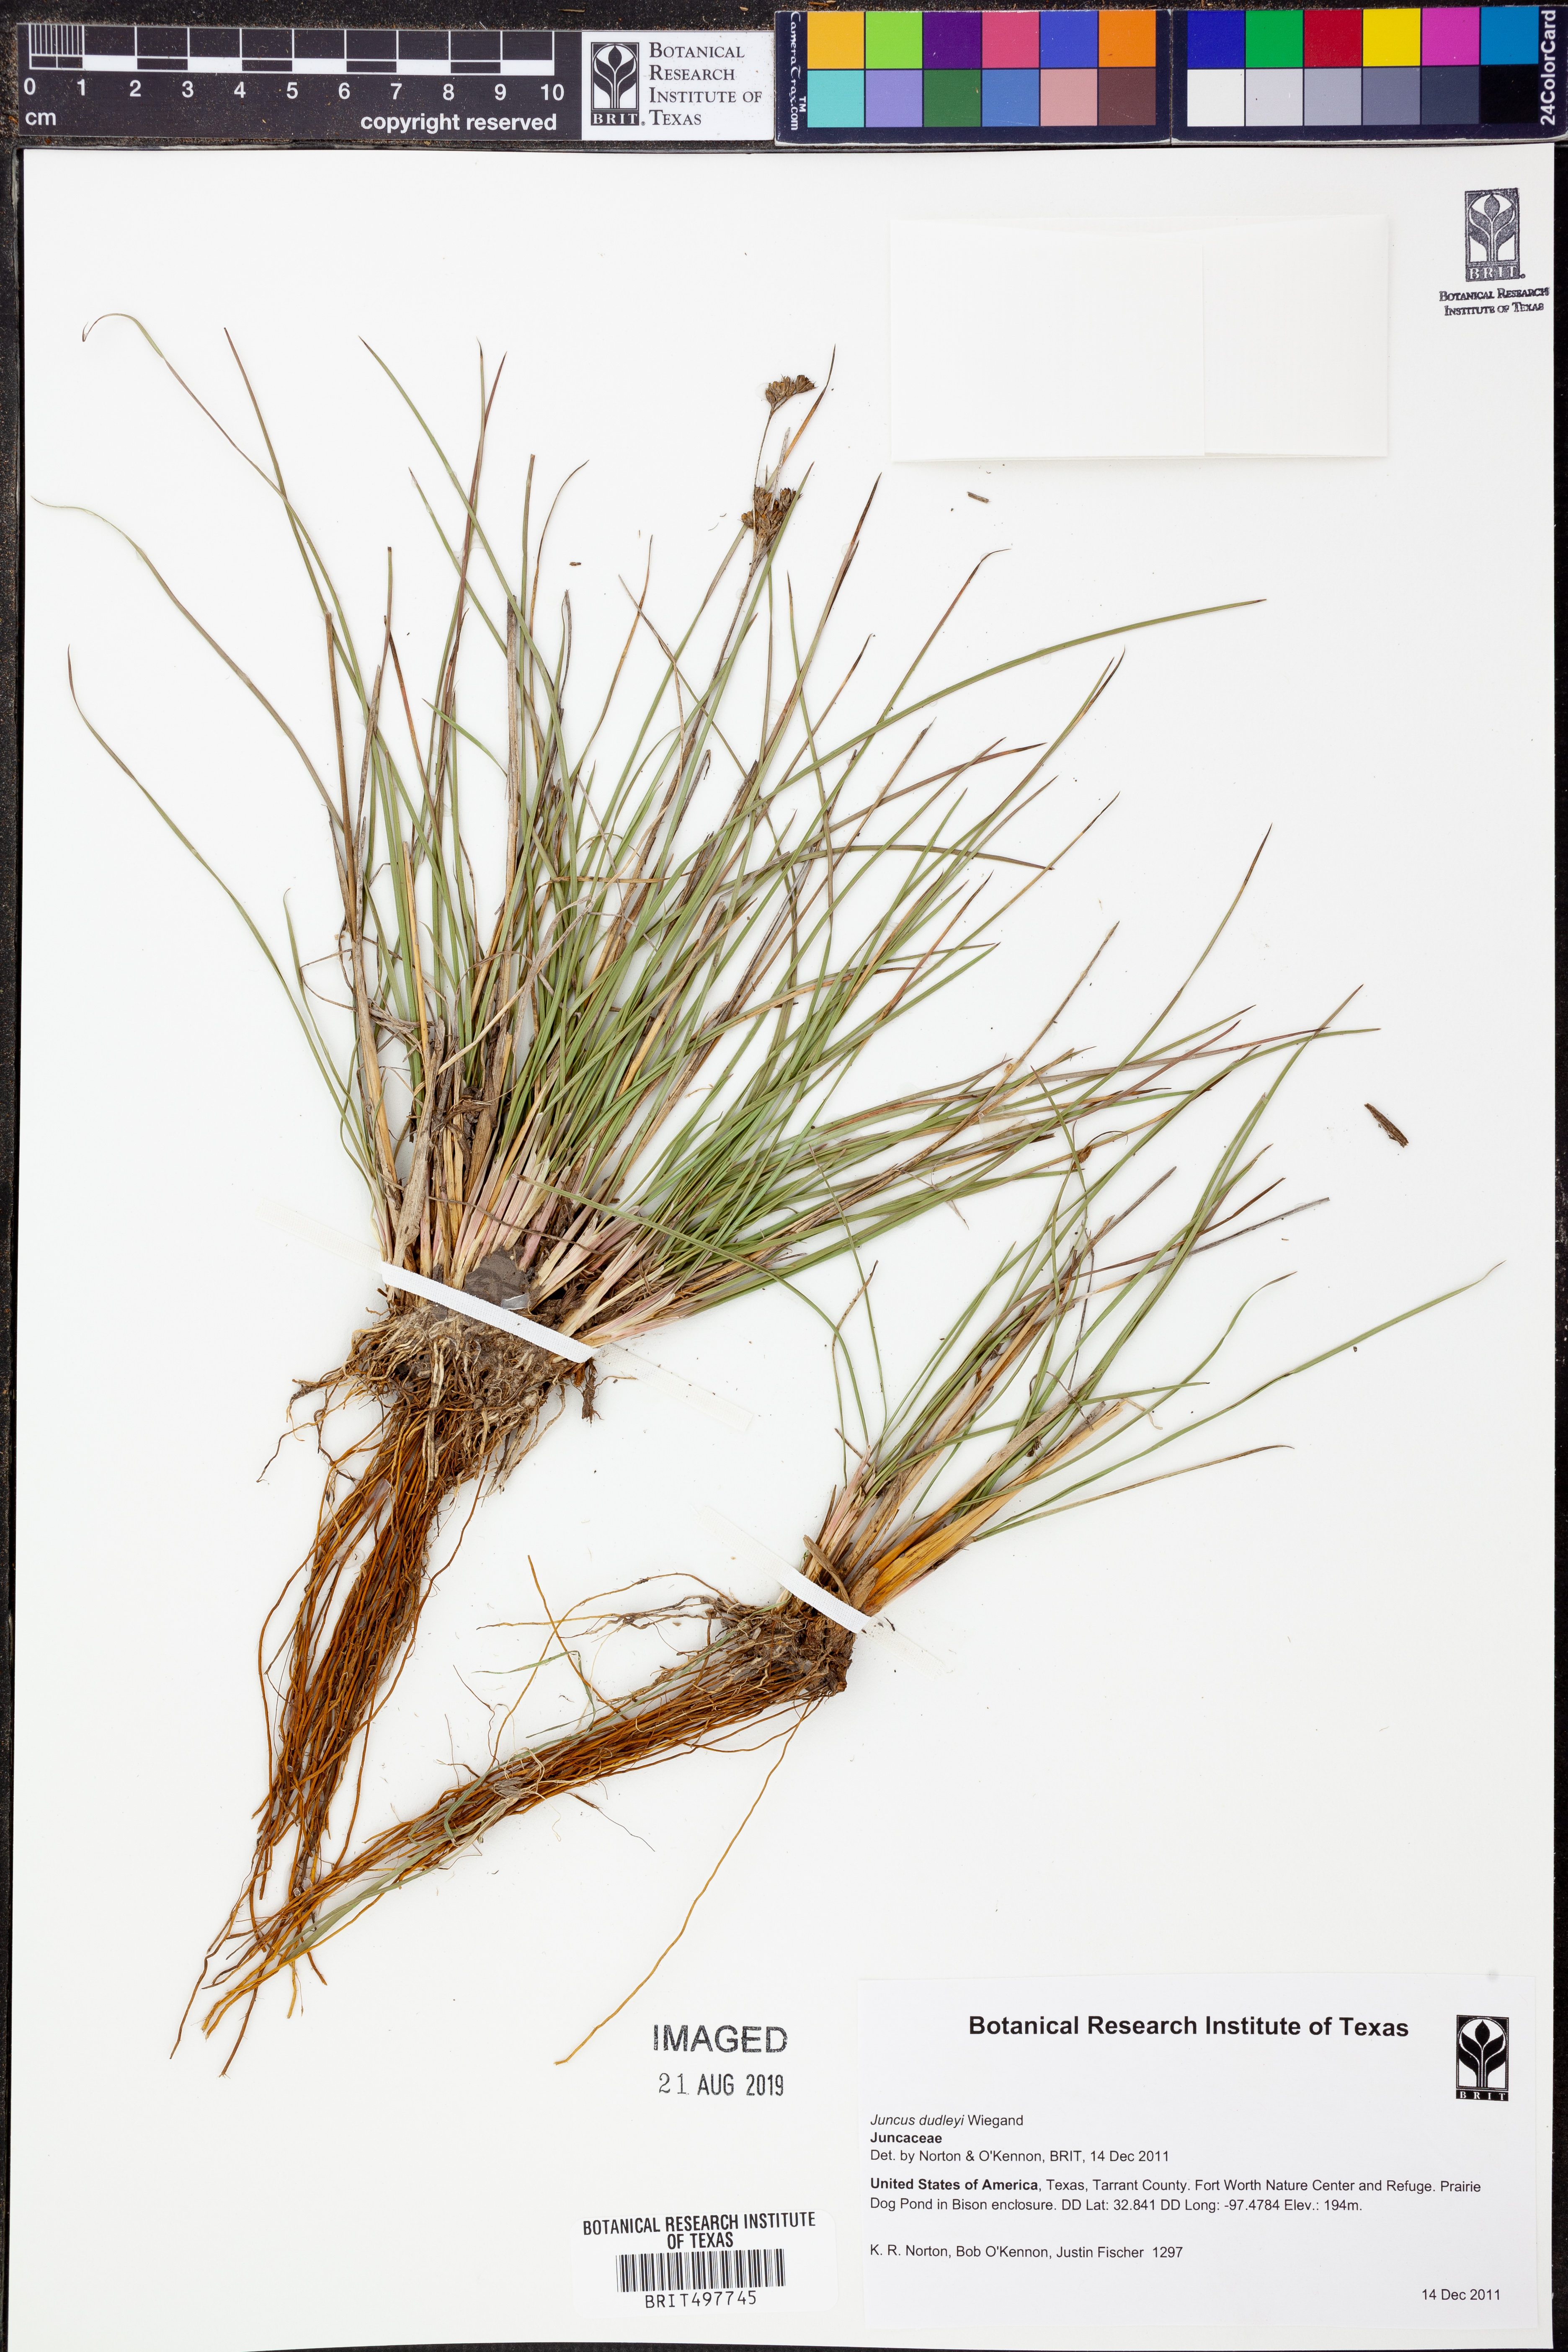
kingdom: Plantae
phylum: Tracheophyta
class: Liliopsida
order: Poales
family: Juncaceae
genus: Juncus
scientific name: Juncus dudleyi
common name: Dudley's rush
